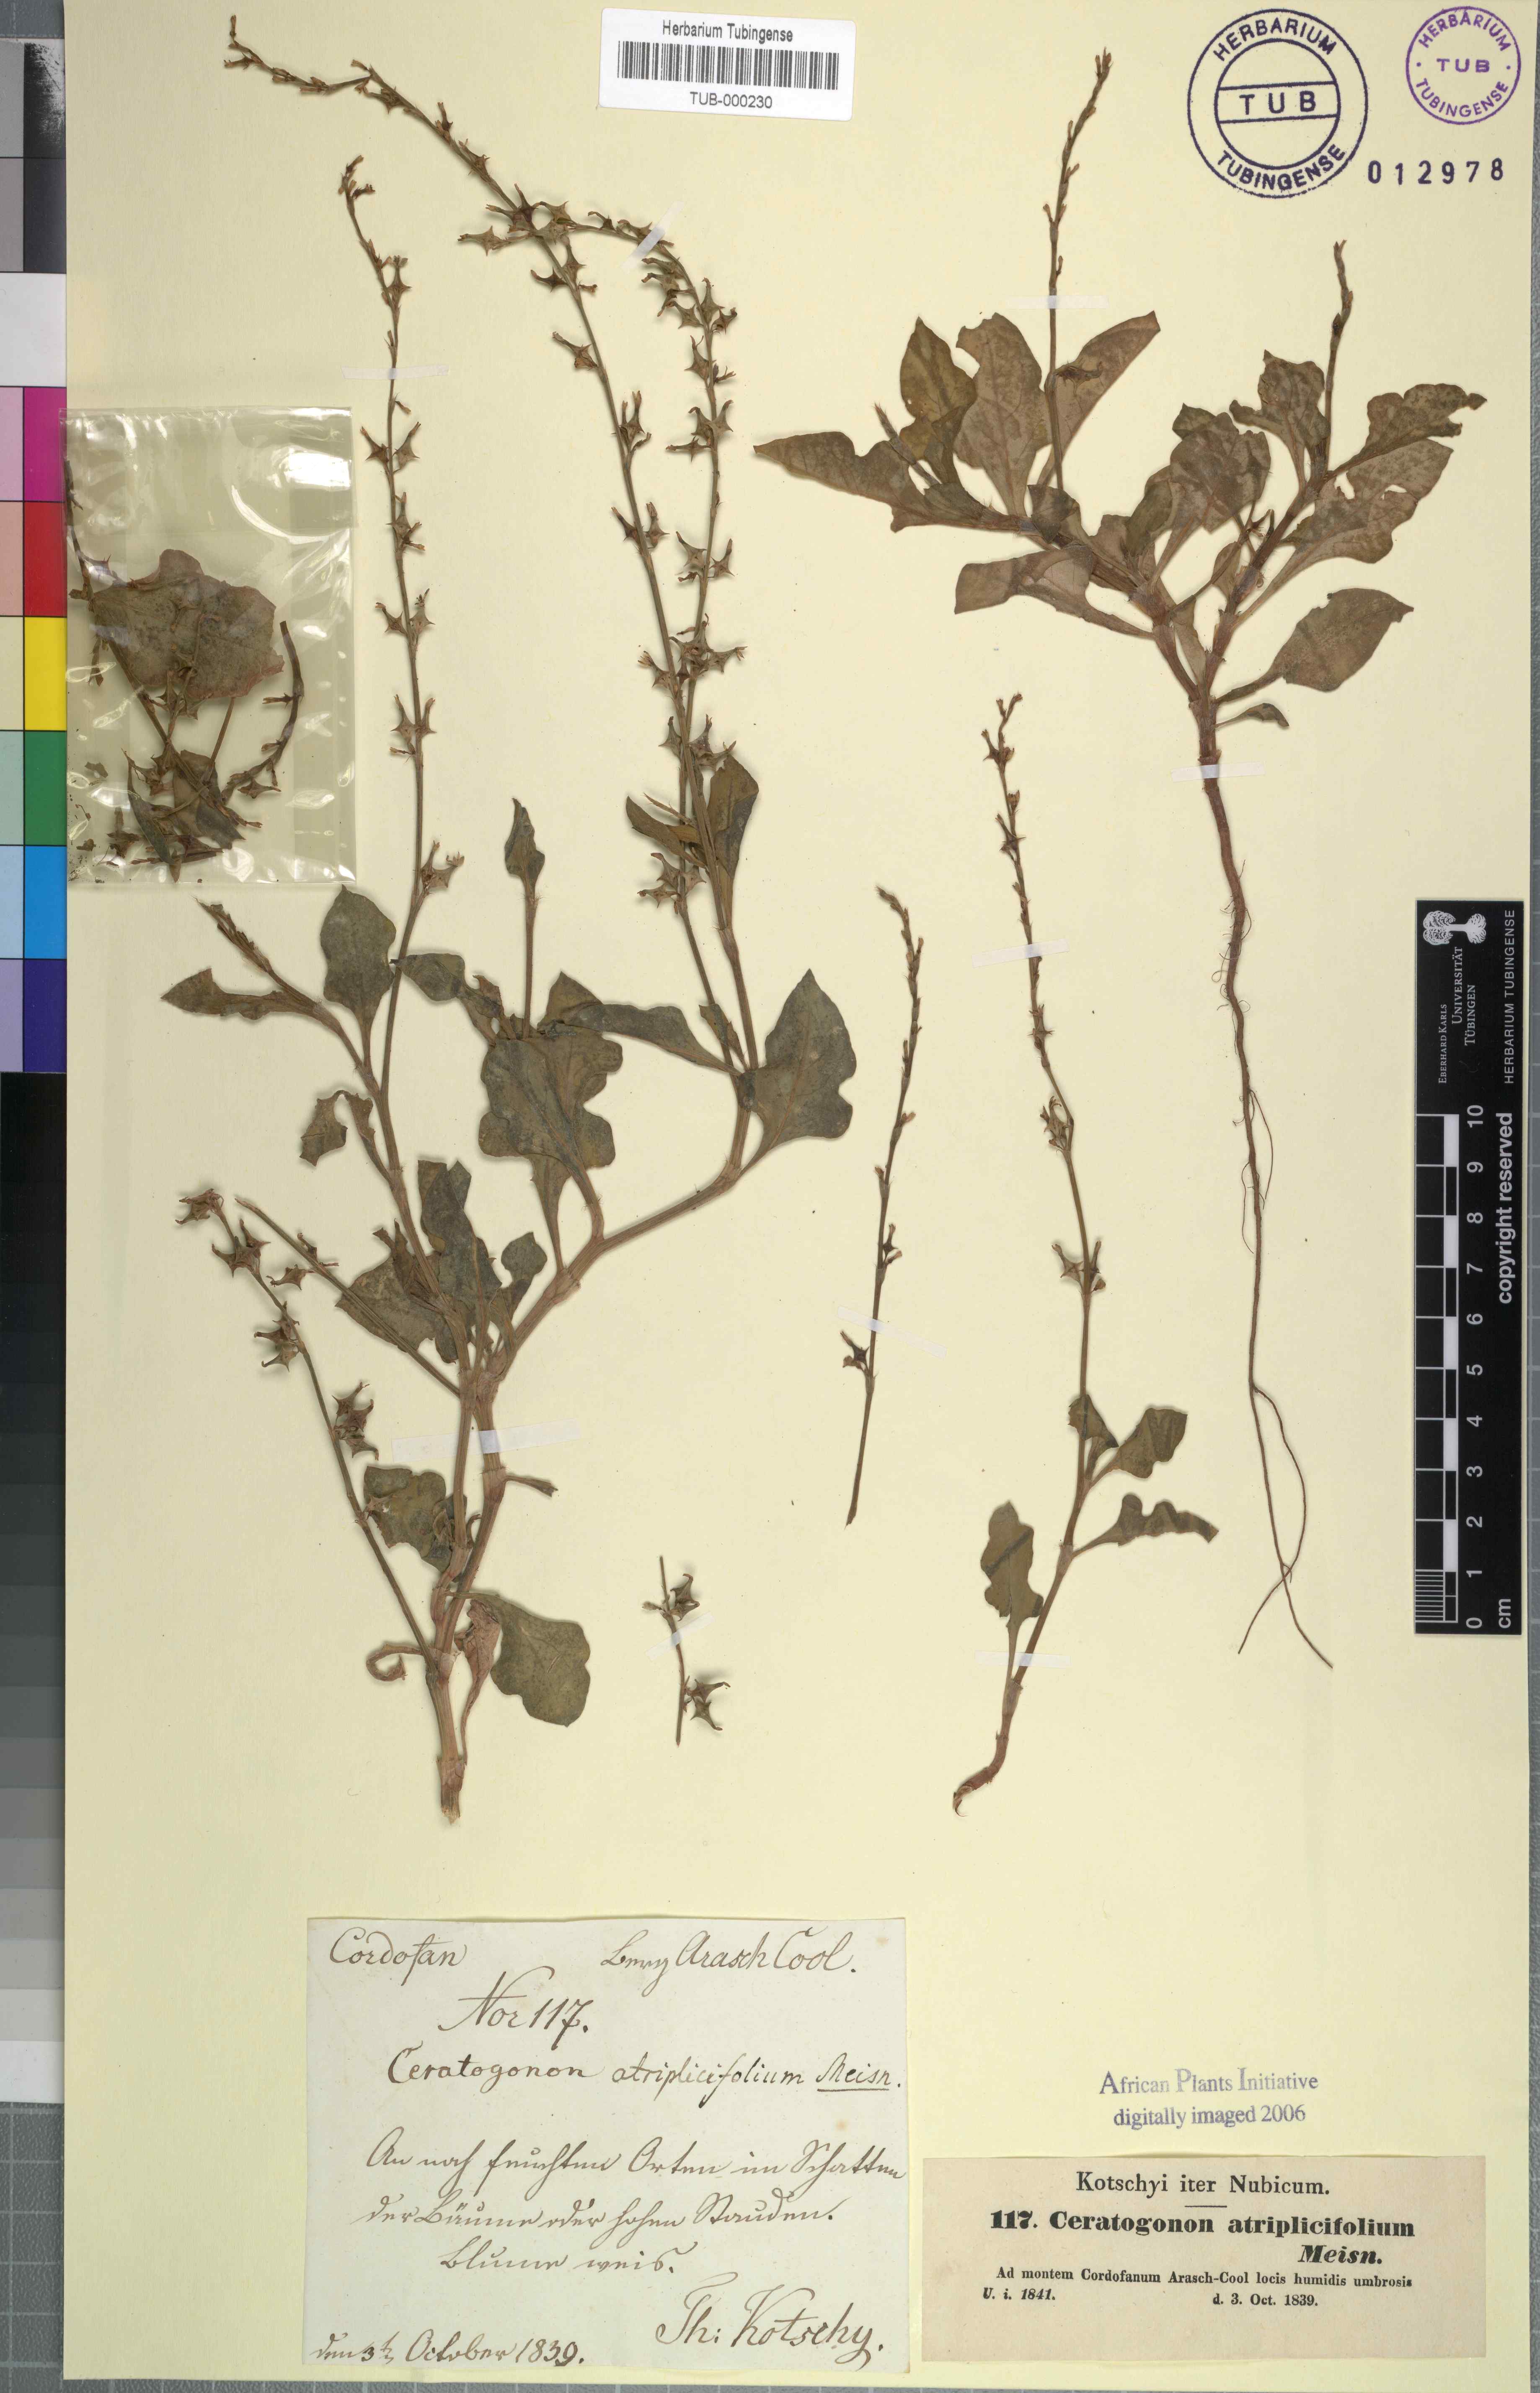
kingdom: Plantae
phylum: Tracheophyta
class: Magnoliopsida
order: Caryophyllales
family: Polygonaceae
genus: Oxygonum
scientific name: Oxygonum atriplicifolium
